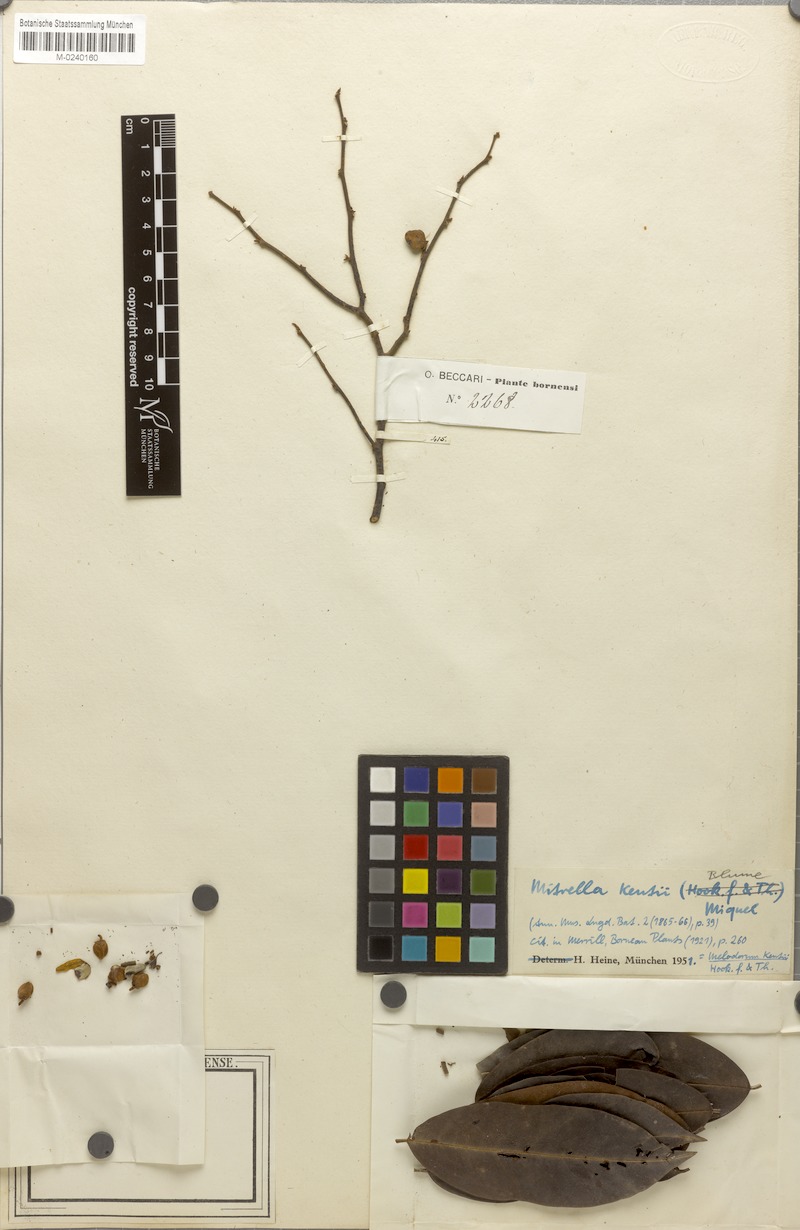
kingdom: Plantae
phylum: Tracheophyta
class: Magnoliopsida
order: Magnoliales
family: Annonaceae
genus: Mitrella
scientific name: Mitrella kentii
